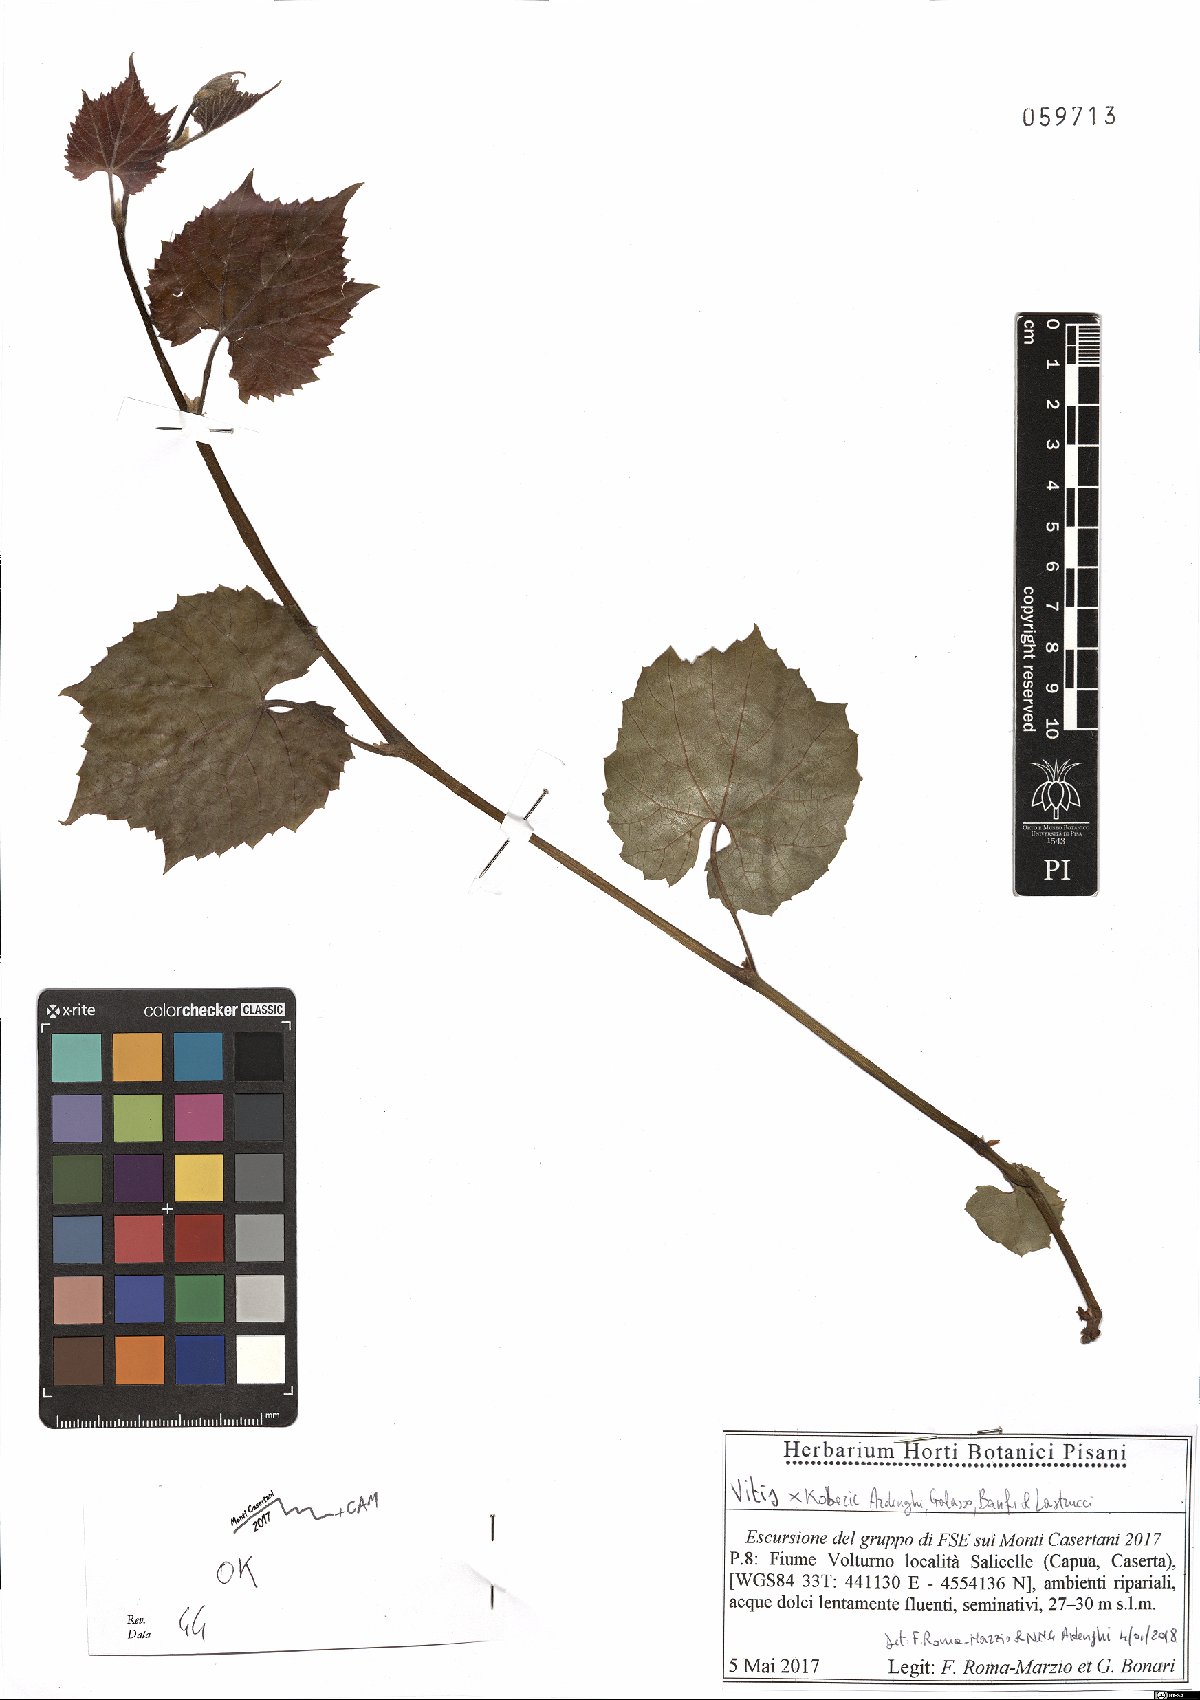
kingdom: Plantae
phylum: Tracheophyta
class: Magnoliopsida
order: Vitales
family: Vitaceae
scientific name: Vitaceae
